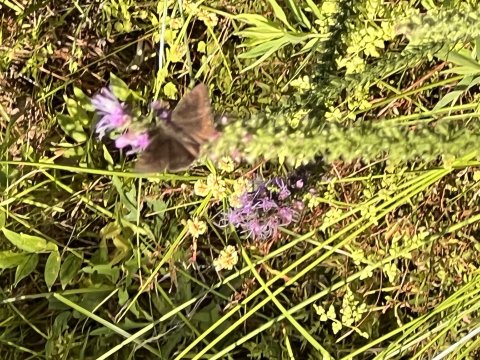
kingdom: Animalia
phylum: Arthropoda
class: Insecta
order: Lepidoptera
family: Hesperiidae
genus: Gesta
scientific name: Gesta
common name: Horace's Duskywing
